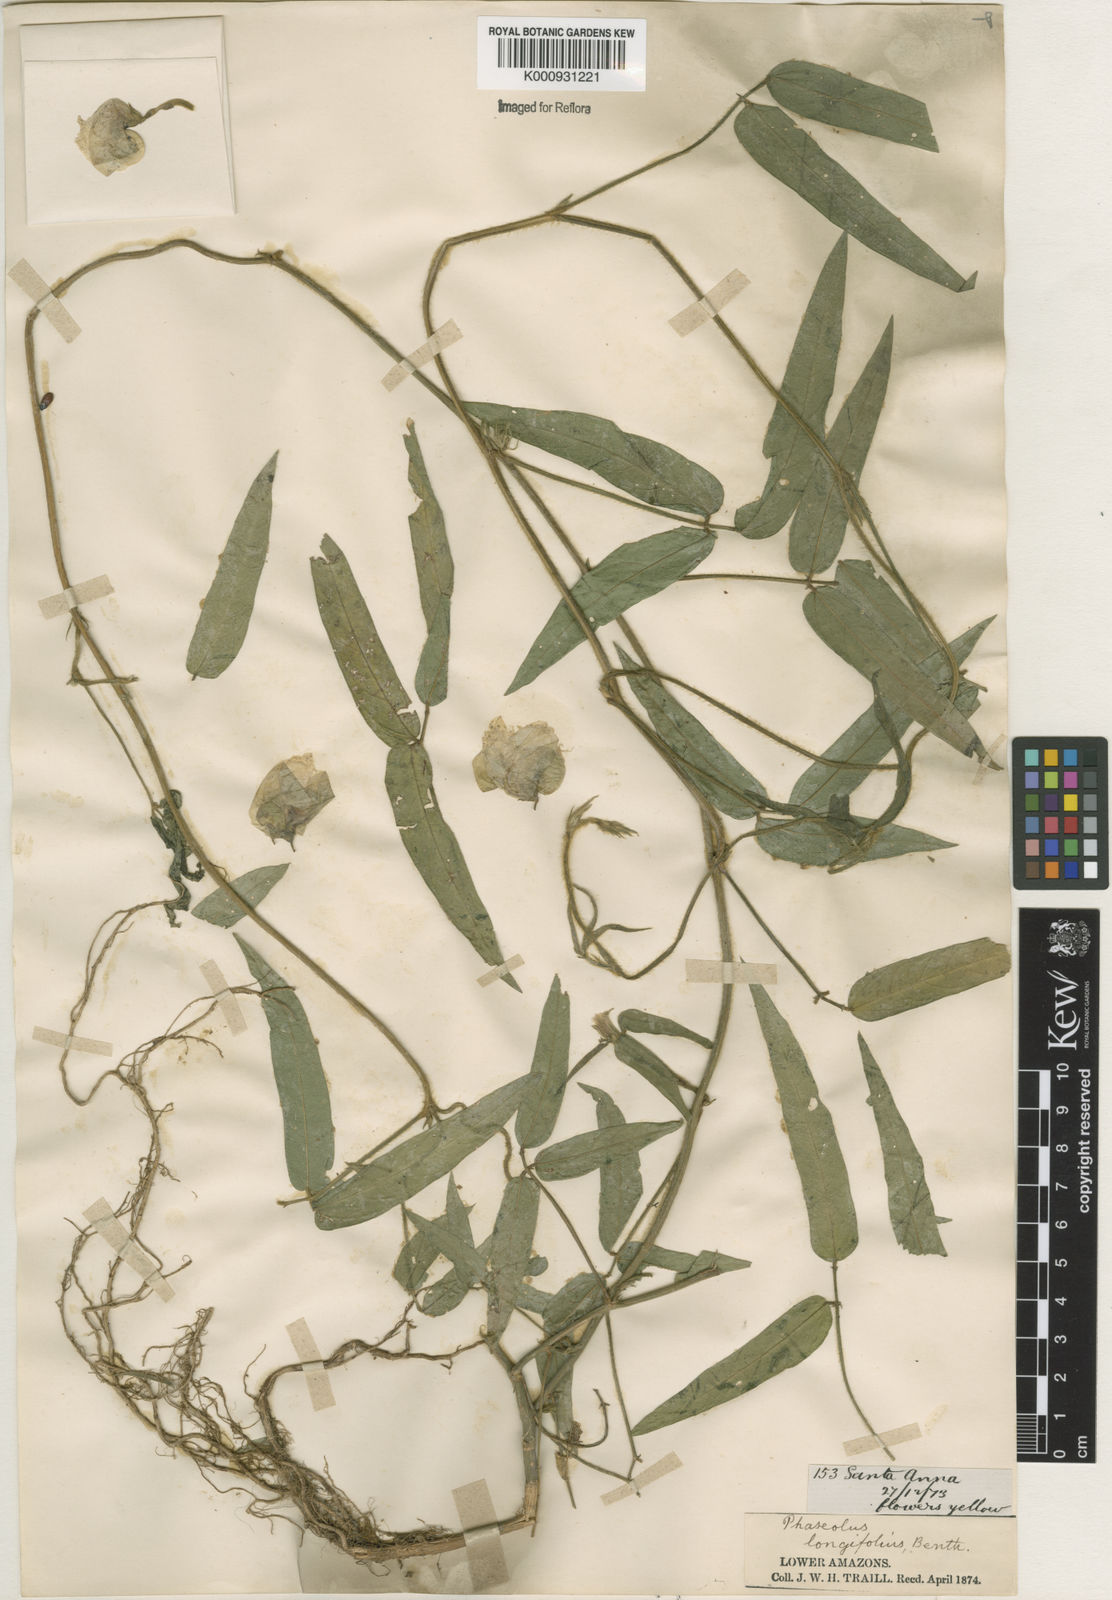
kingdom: Plantae
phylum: Tracheophyta
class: Magnoliopsida
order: Fabales
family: Fabaceae
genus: Vigna
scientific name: Vigna longifolia
